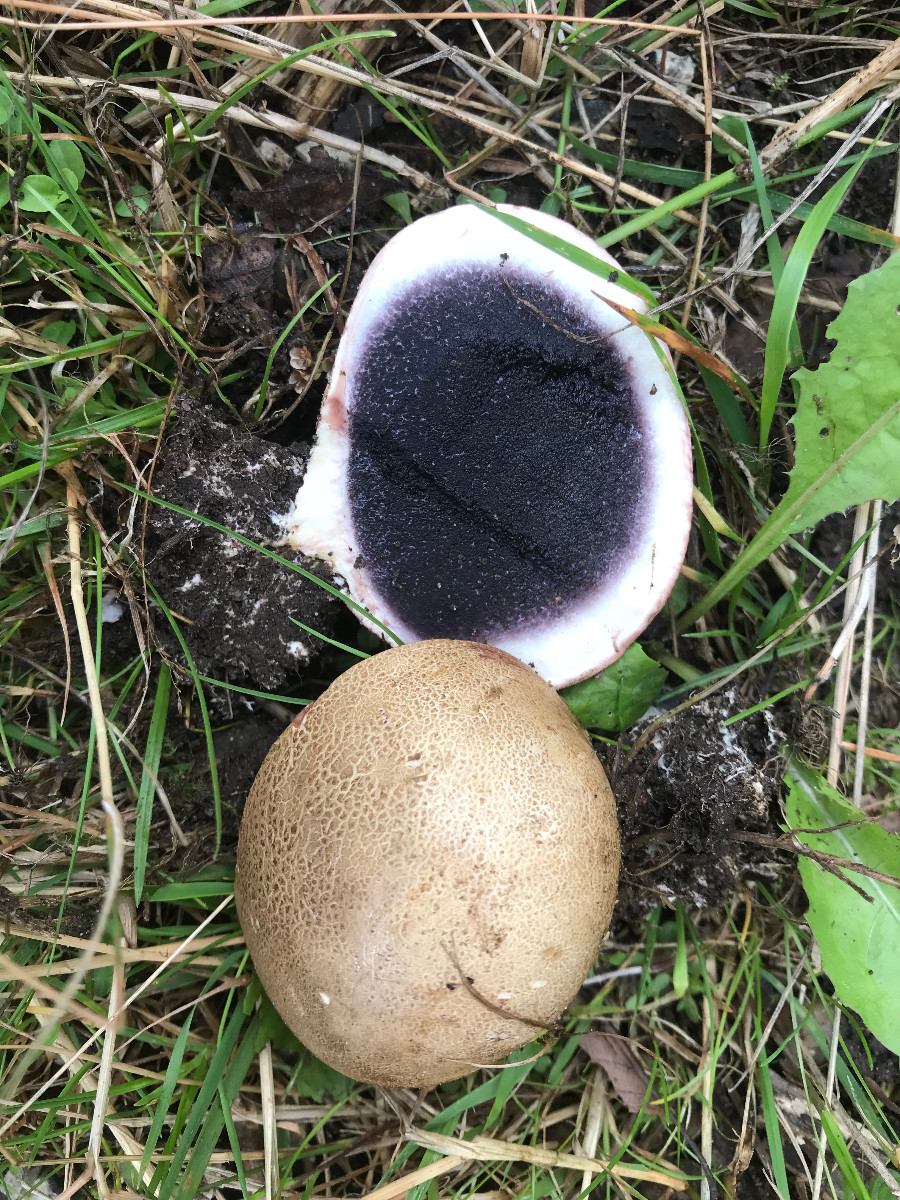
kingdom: Fungi
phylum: Basidiomycota
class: Agaricomycetes
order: Boletales
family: Sclerodermataceae
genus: Scleroderma
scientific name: Scleroderma bovista
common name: bovist-bruskbold
